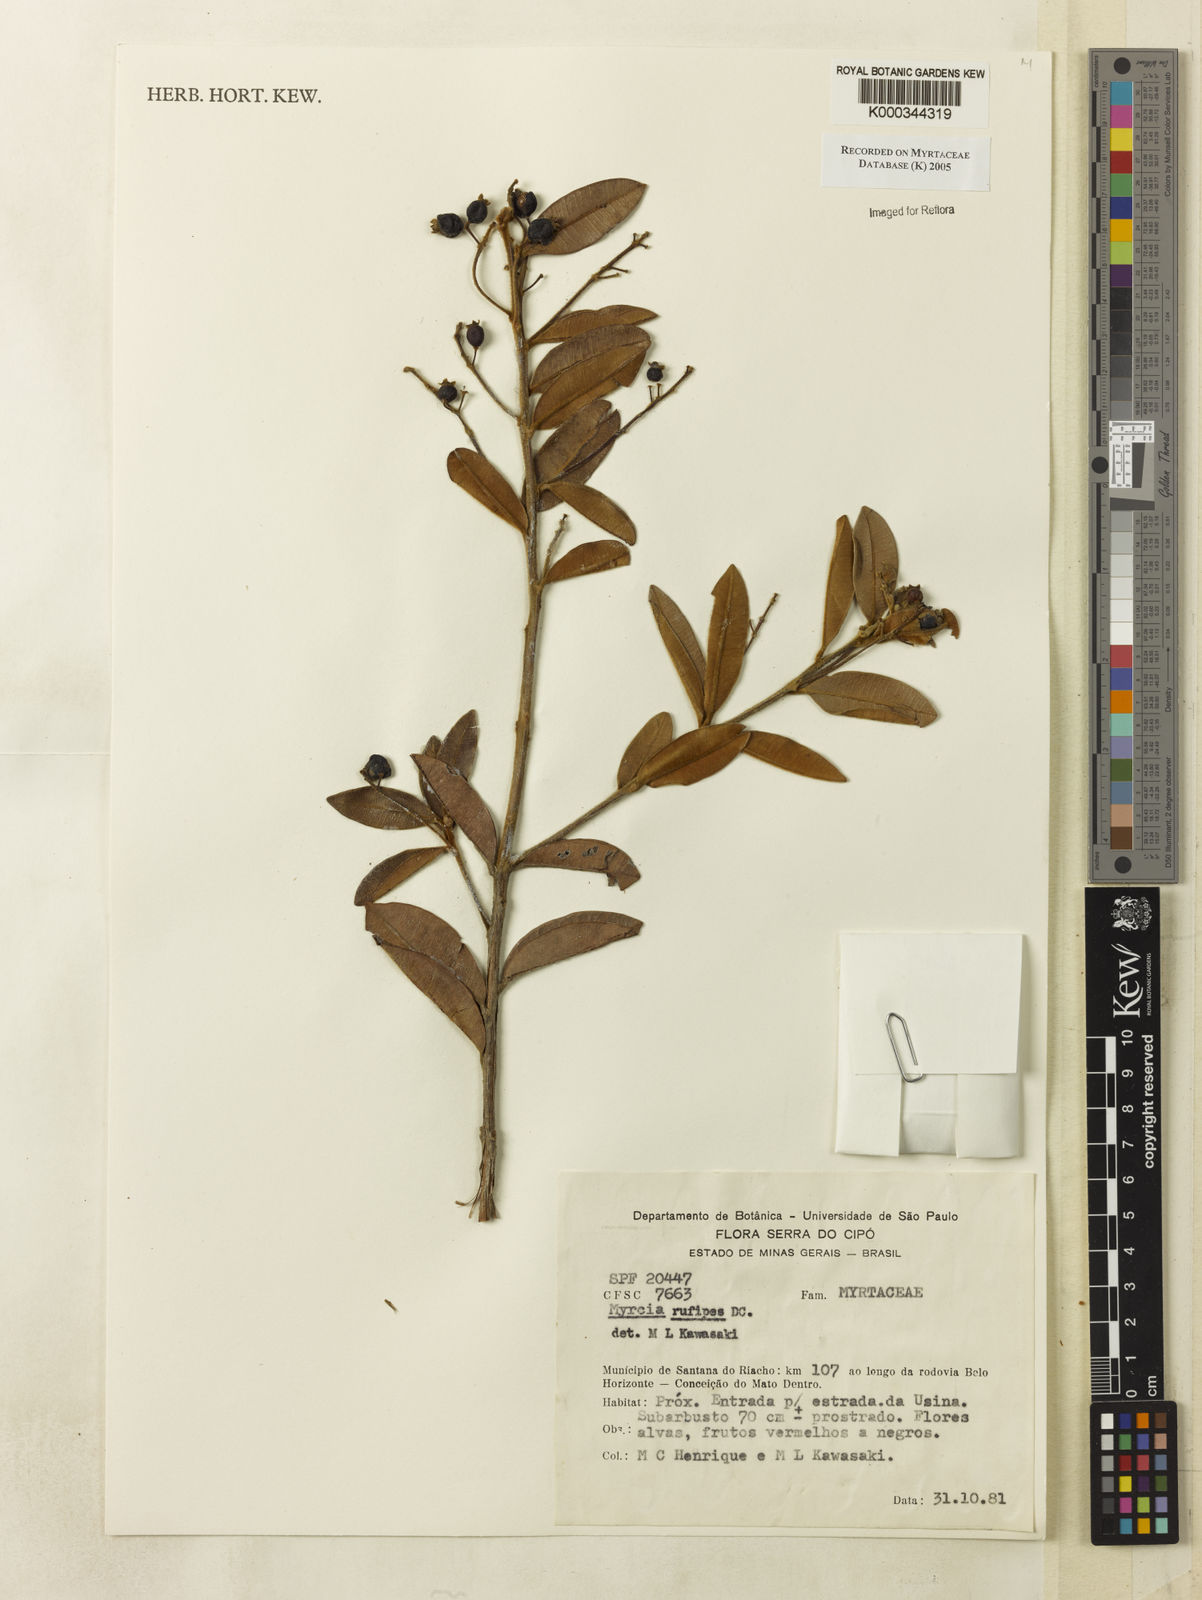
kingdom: Plantae
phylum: Tracheophyta
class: Magnoliopsida
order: Myrtales
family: Myrtaceae
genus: Myrcia
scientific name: Myrcia rufipes
